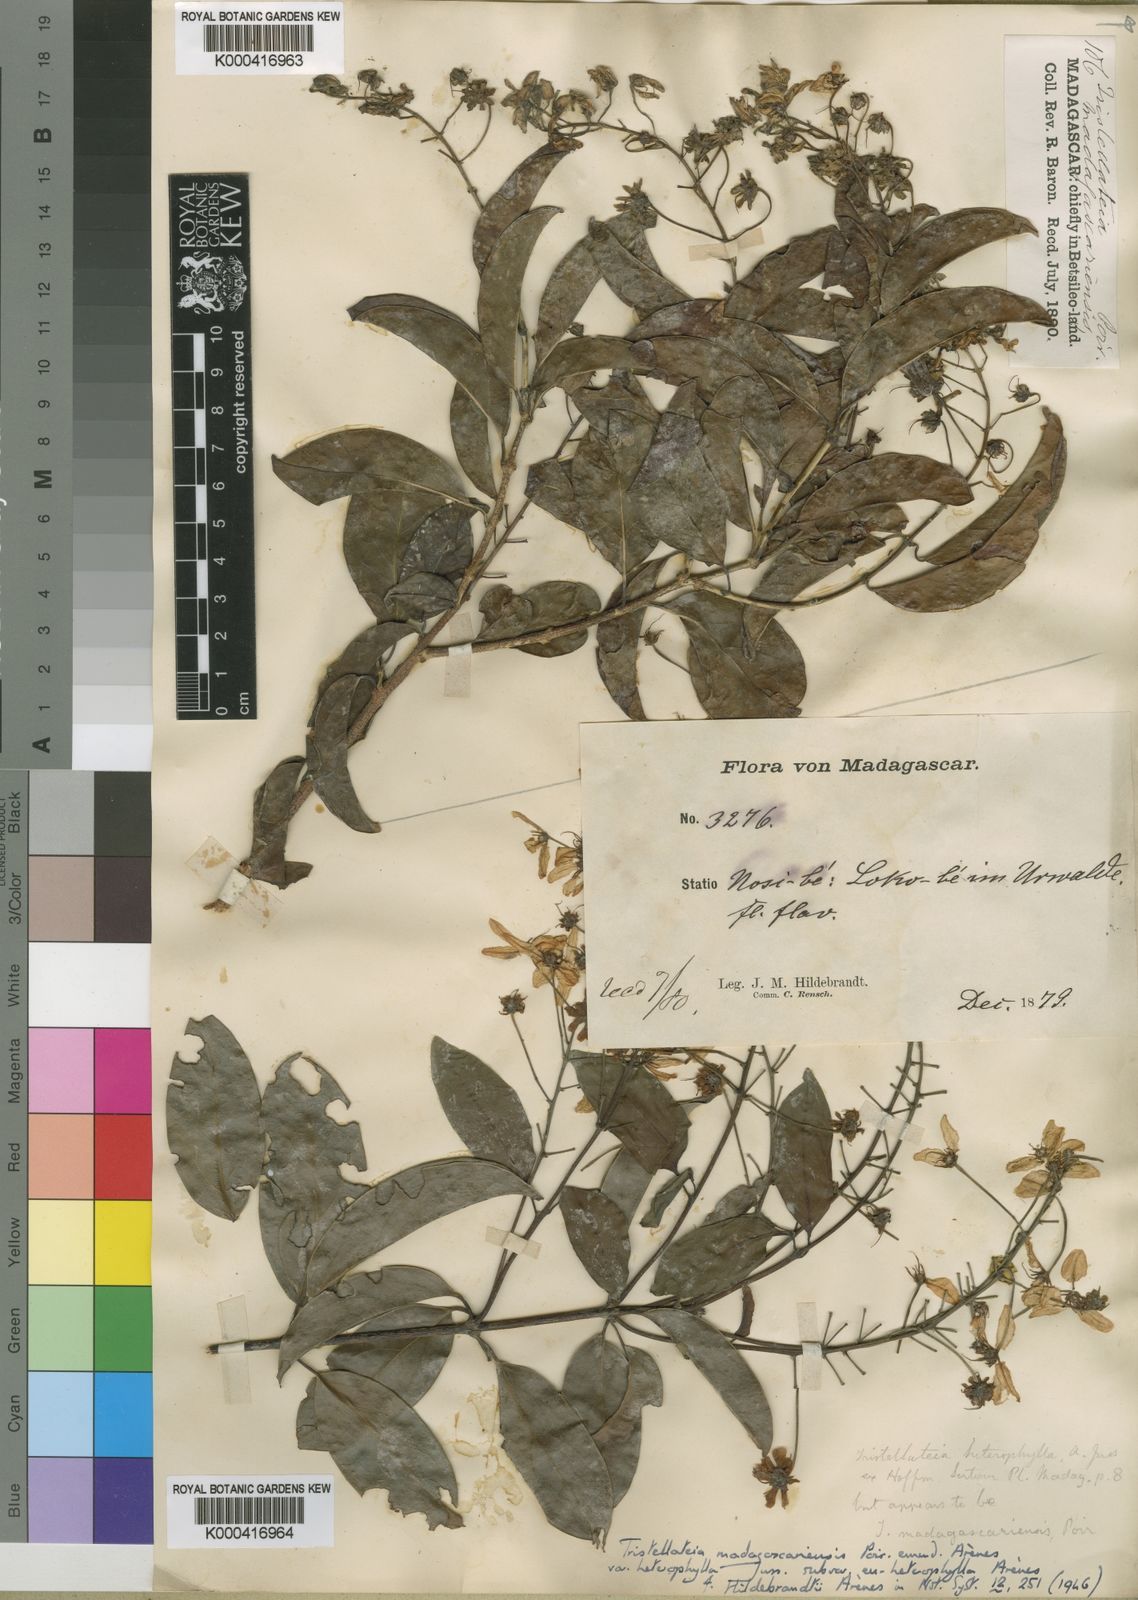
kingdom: Plantae
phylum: Tracheophyta
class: Magnoliopsida
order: Malpighiales
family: Malpighiaceae
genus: Tristellateia
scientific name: Tristellateia madagascariensis
